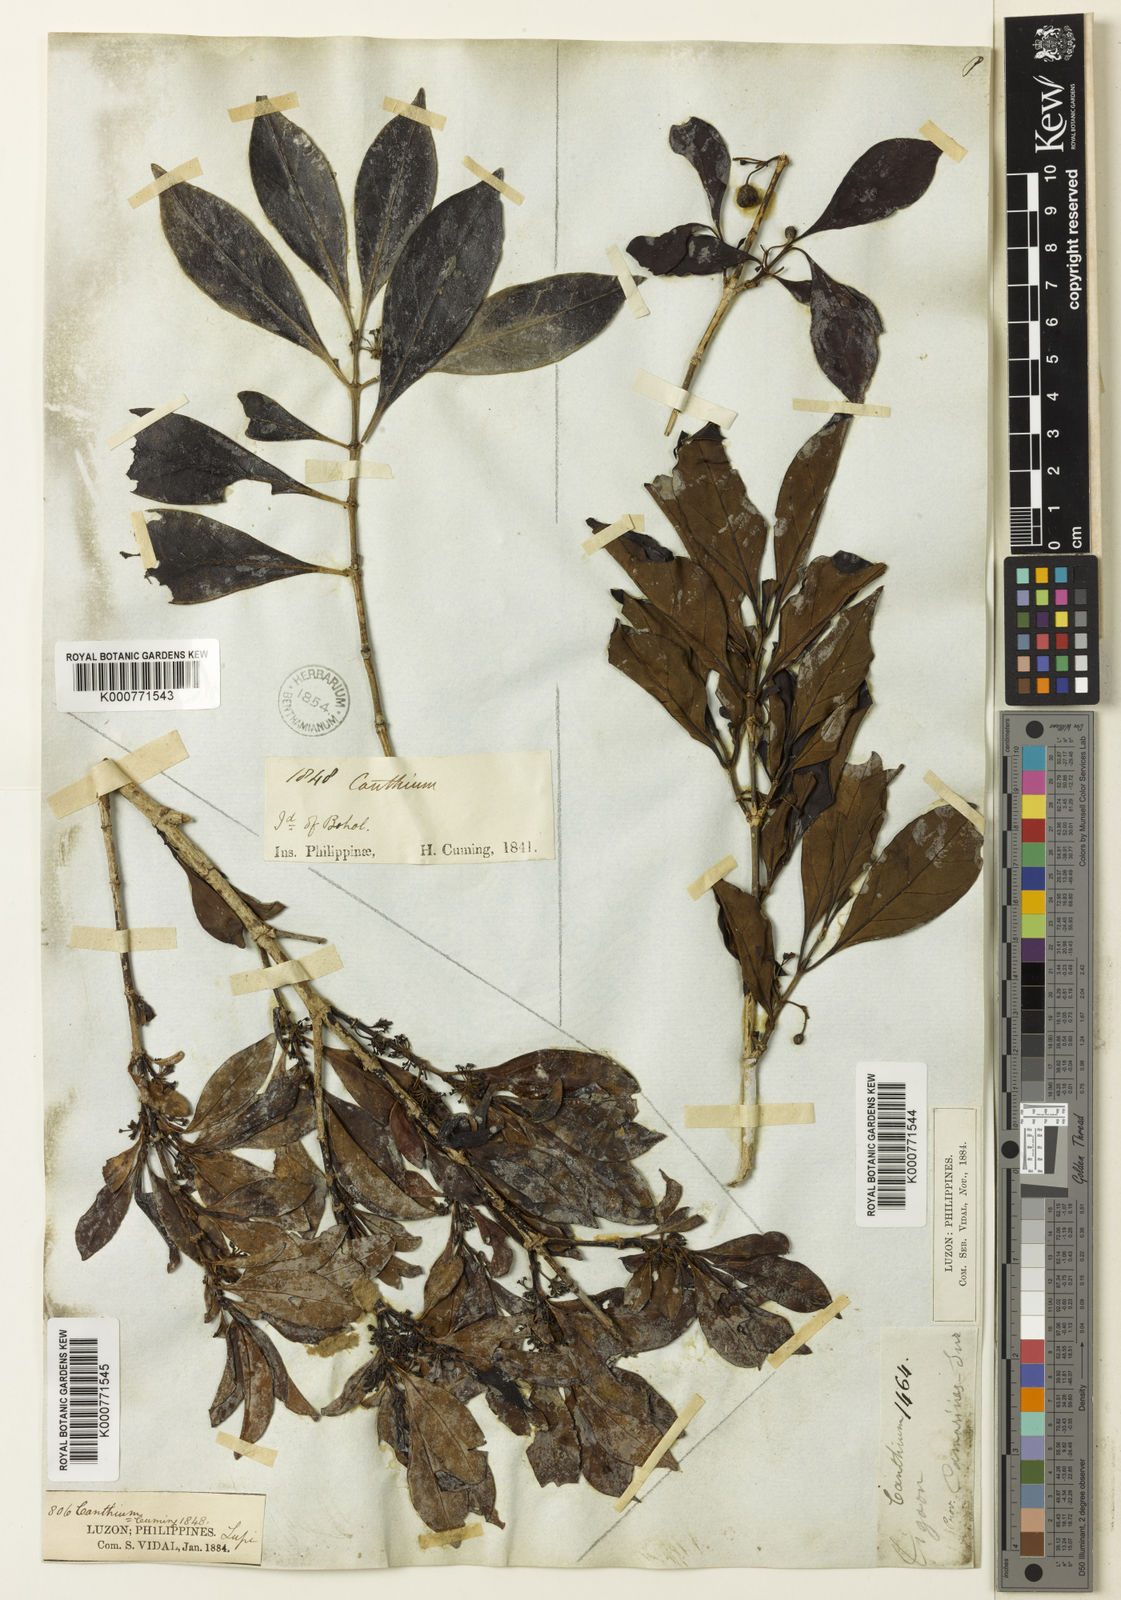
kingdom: Plantae
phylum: Tracheophyta
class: Magnoliopsida
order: Gentianales
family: Rubiaceae
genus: Canthium
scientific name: Canthium
